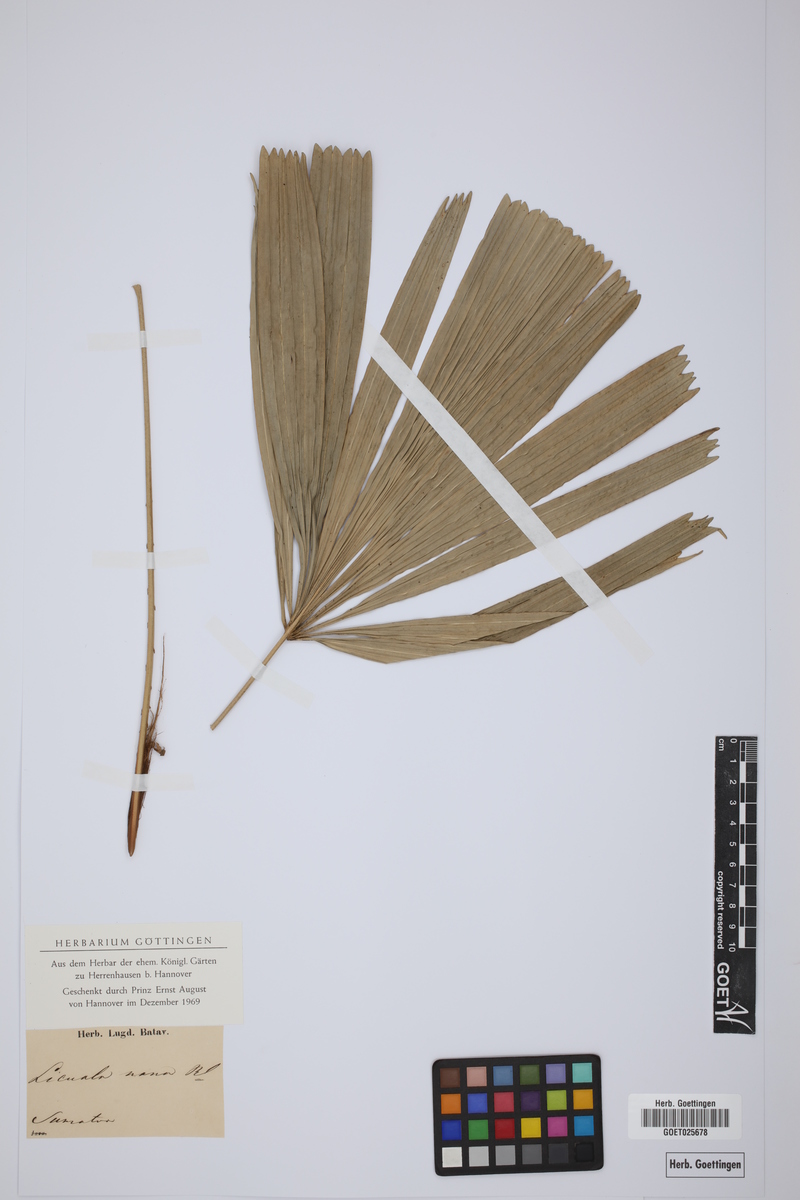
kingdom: Plantae
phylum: Tracheophyta
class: Liliopsida
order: Arecales
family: Arecaceae
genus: Licuala
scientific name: Licuala nana
